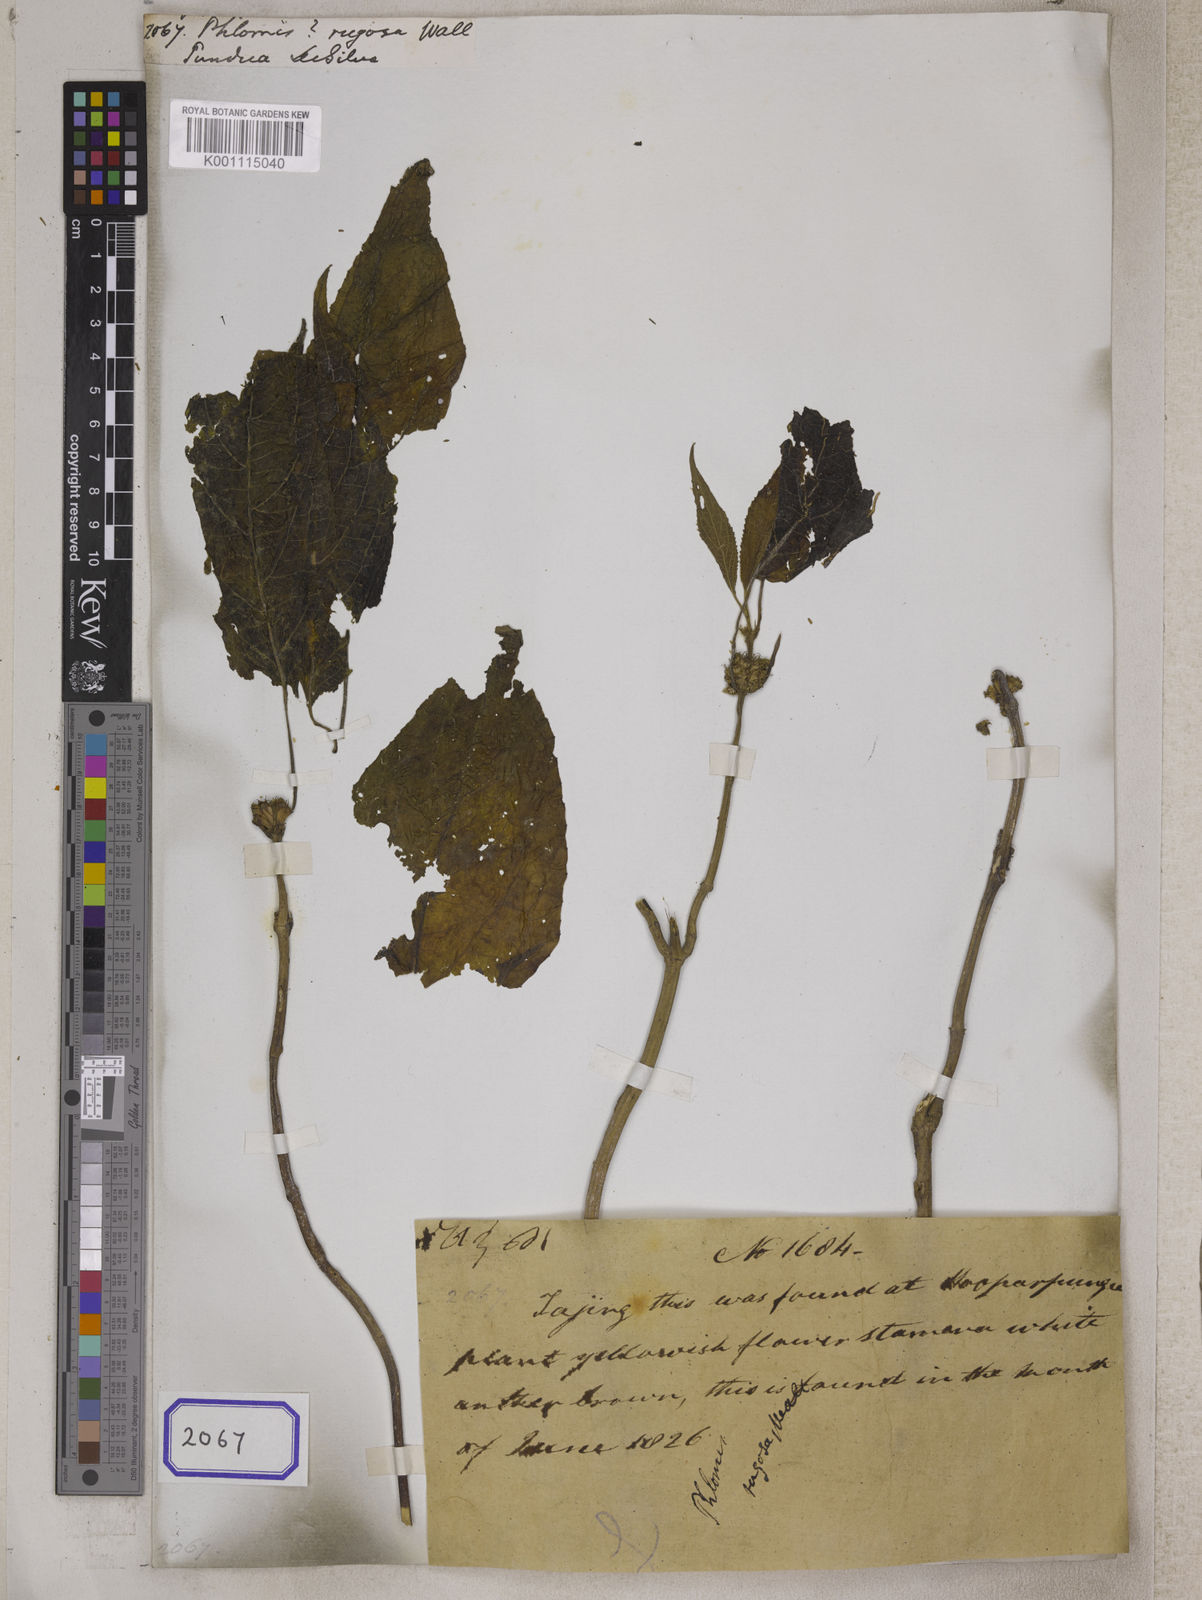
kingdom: Plantae
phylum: Tracheophyta
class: Magnoliopsida
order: Lamiales
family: Lamiaceae
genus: Phlomis
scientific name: Phlomis
